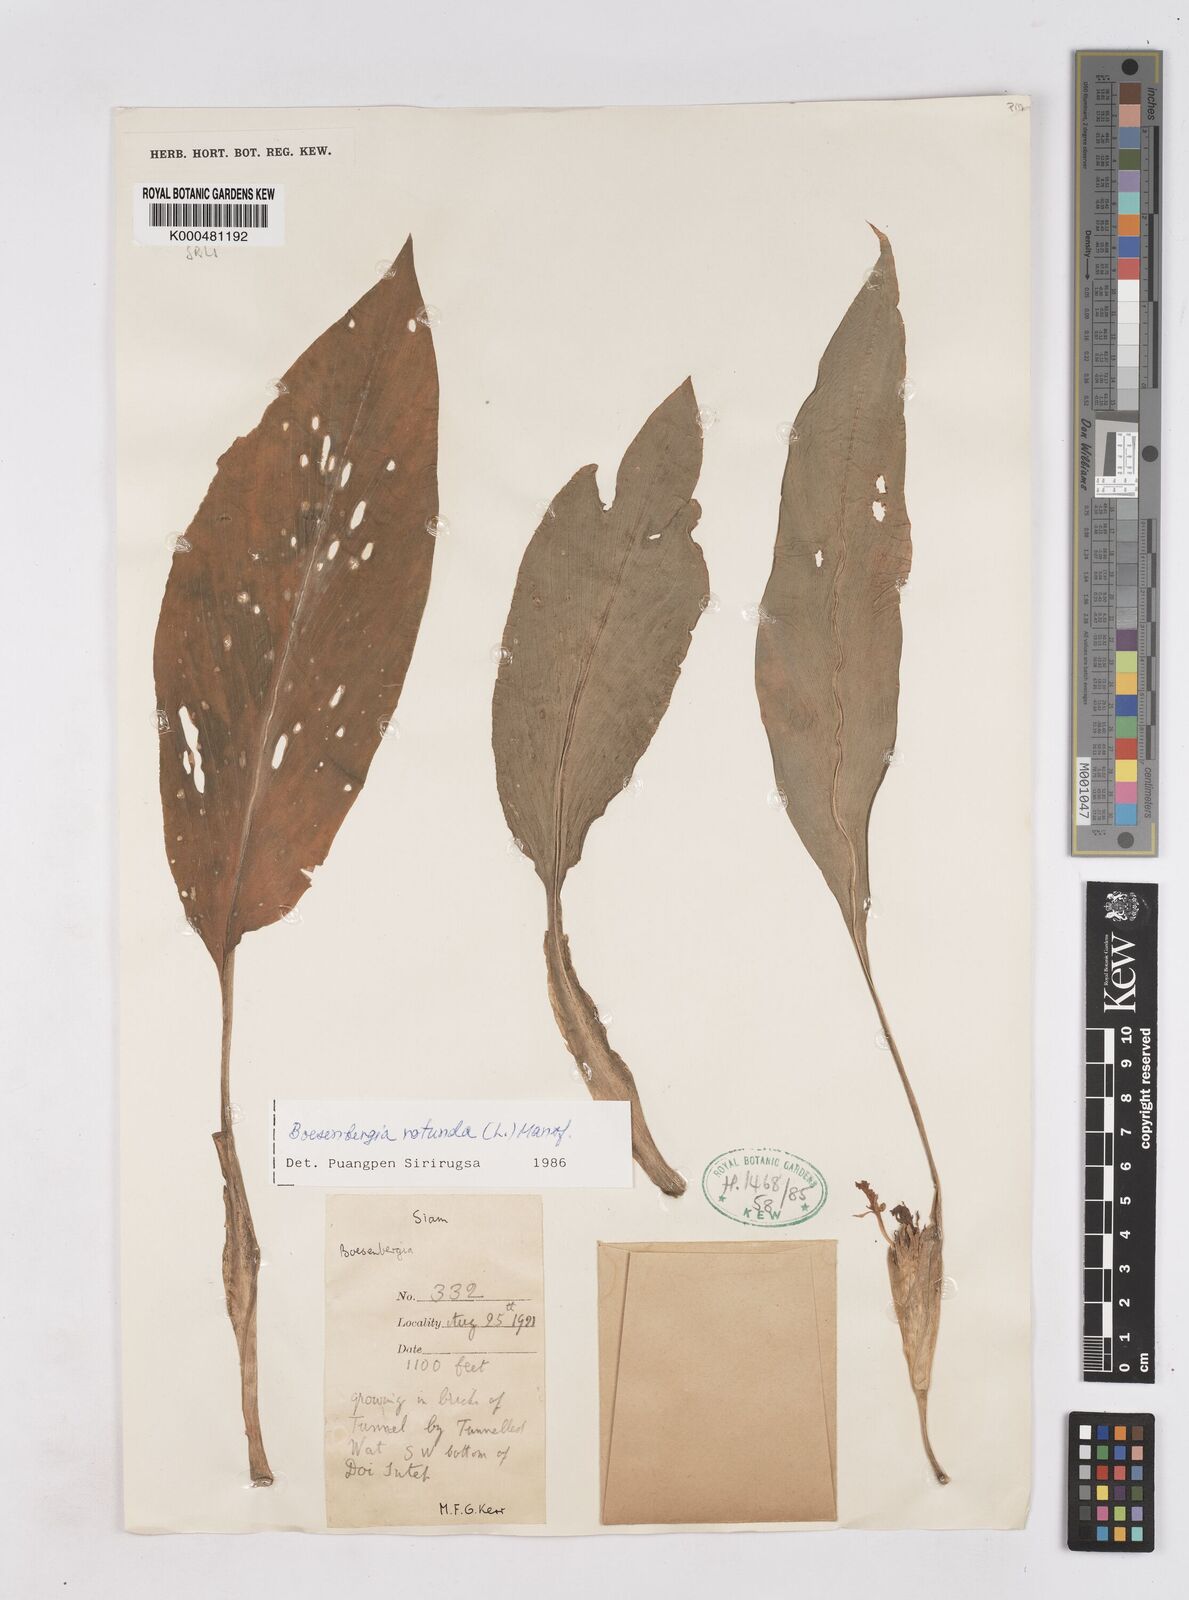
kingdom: Plantae
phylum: Tracheophyta
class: Liliopsida
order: Zingiberales
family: Zingiberaceae
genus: Boesenbergia
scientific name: Boesenbergia rotunda
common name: Chinese ginger
